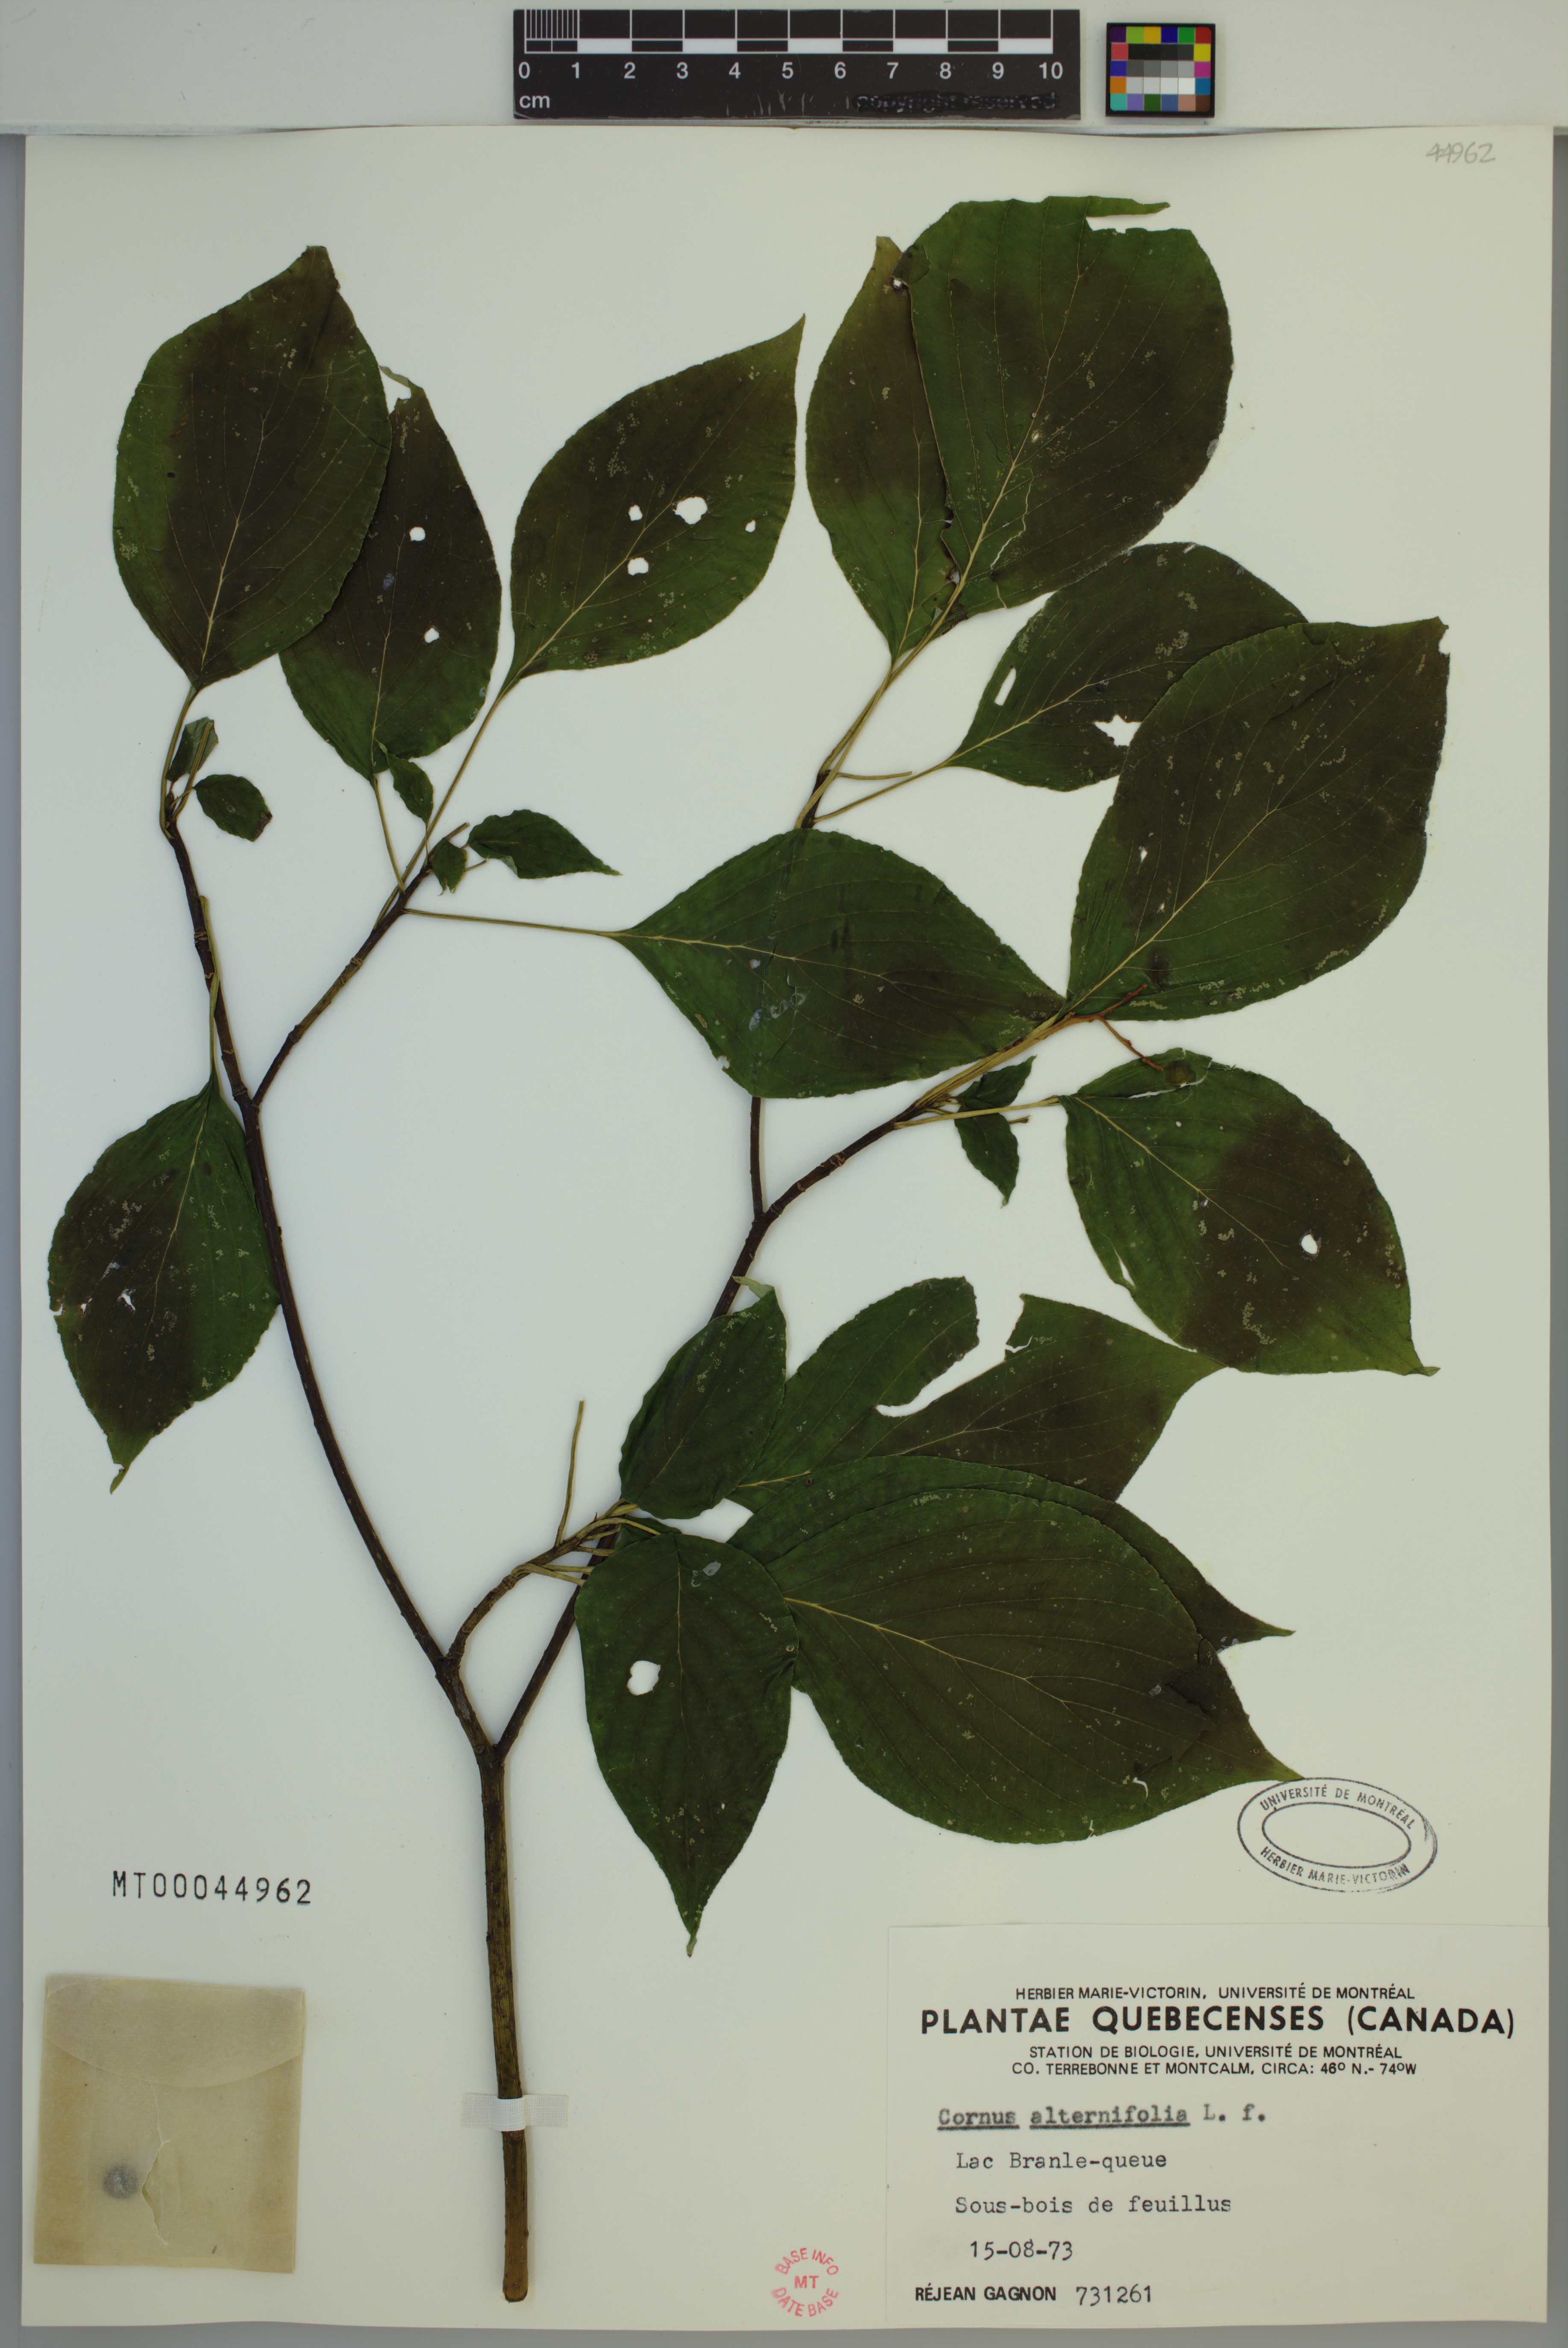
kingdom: Plantae
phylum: Tracheophyta
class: Magnoliopsida
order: Cornales
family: Cornaceae
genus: Cornus
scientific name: Cornus alternifolia
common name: Pagoda dogwood
